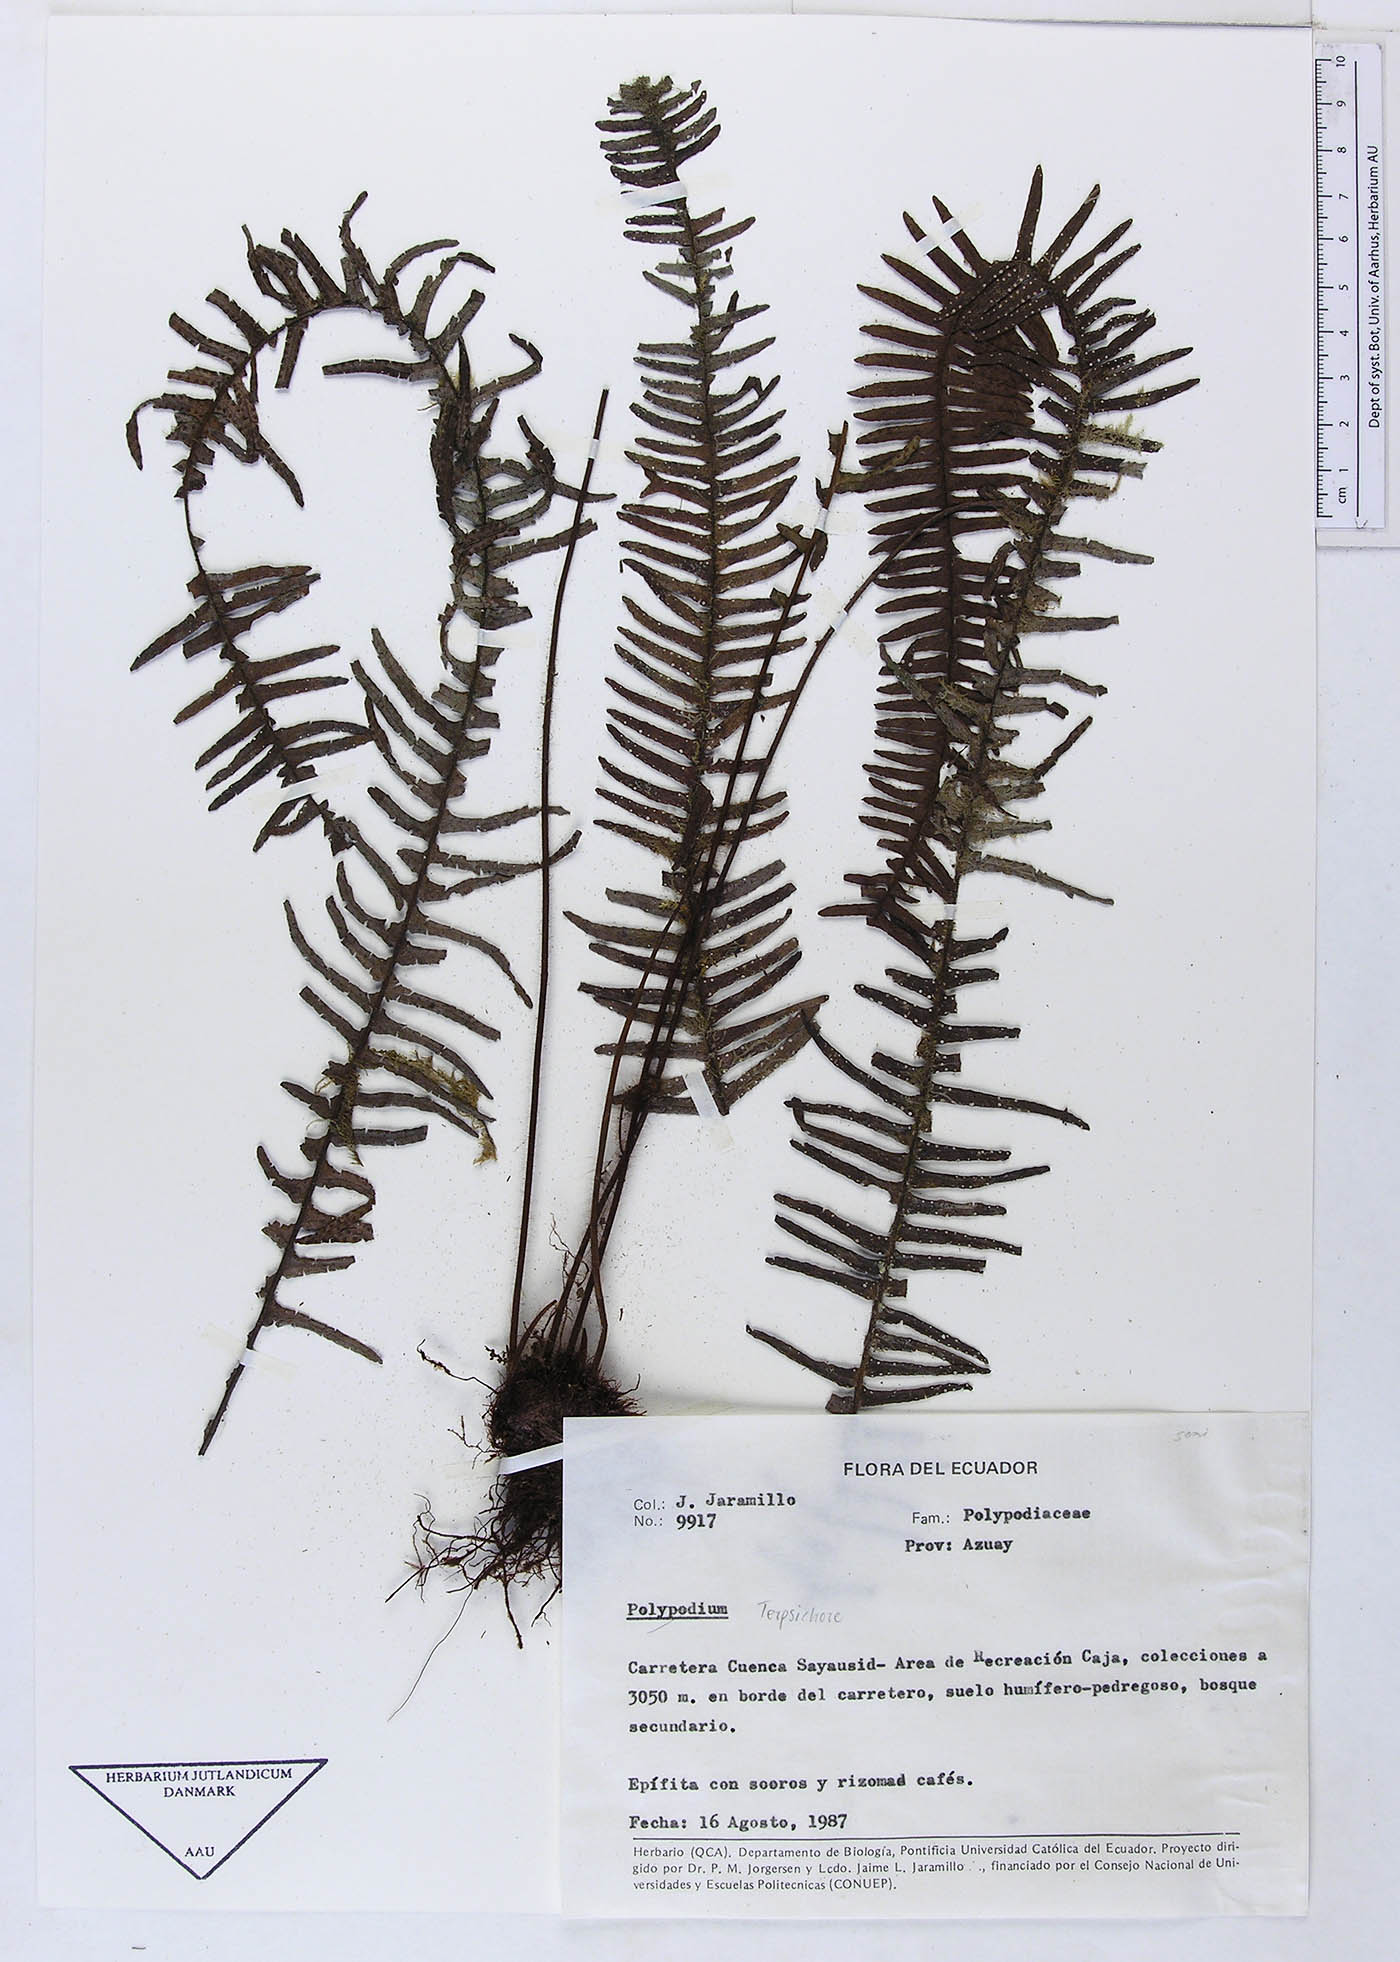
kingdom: Plantae
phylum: Tracheophyta
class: Polypodiopsida
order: Polypodiales
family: Polypodiaceae
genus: Terpsichore
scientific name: Terpsichore
